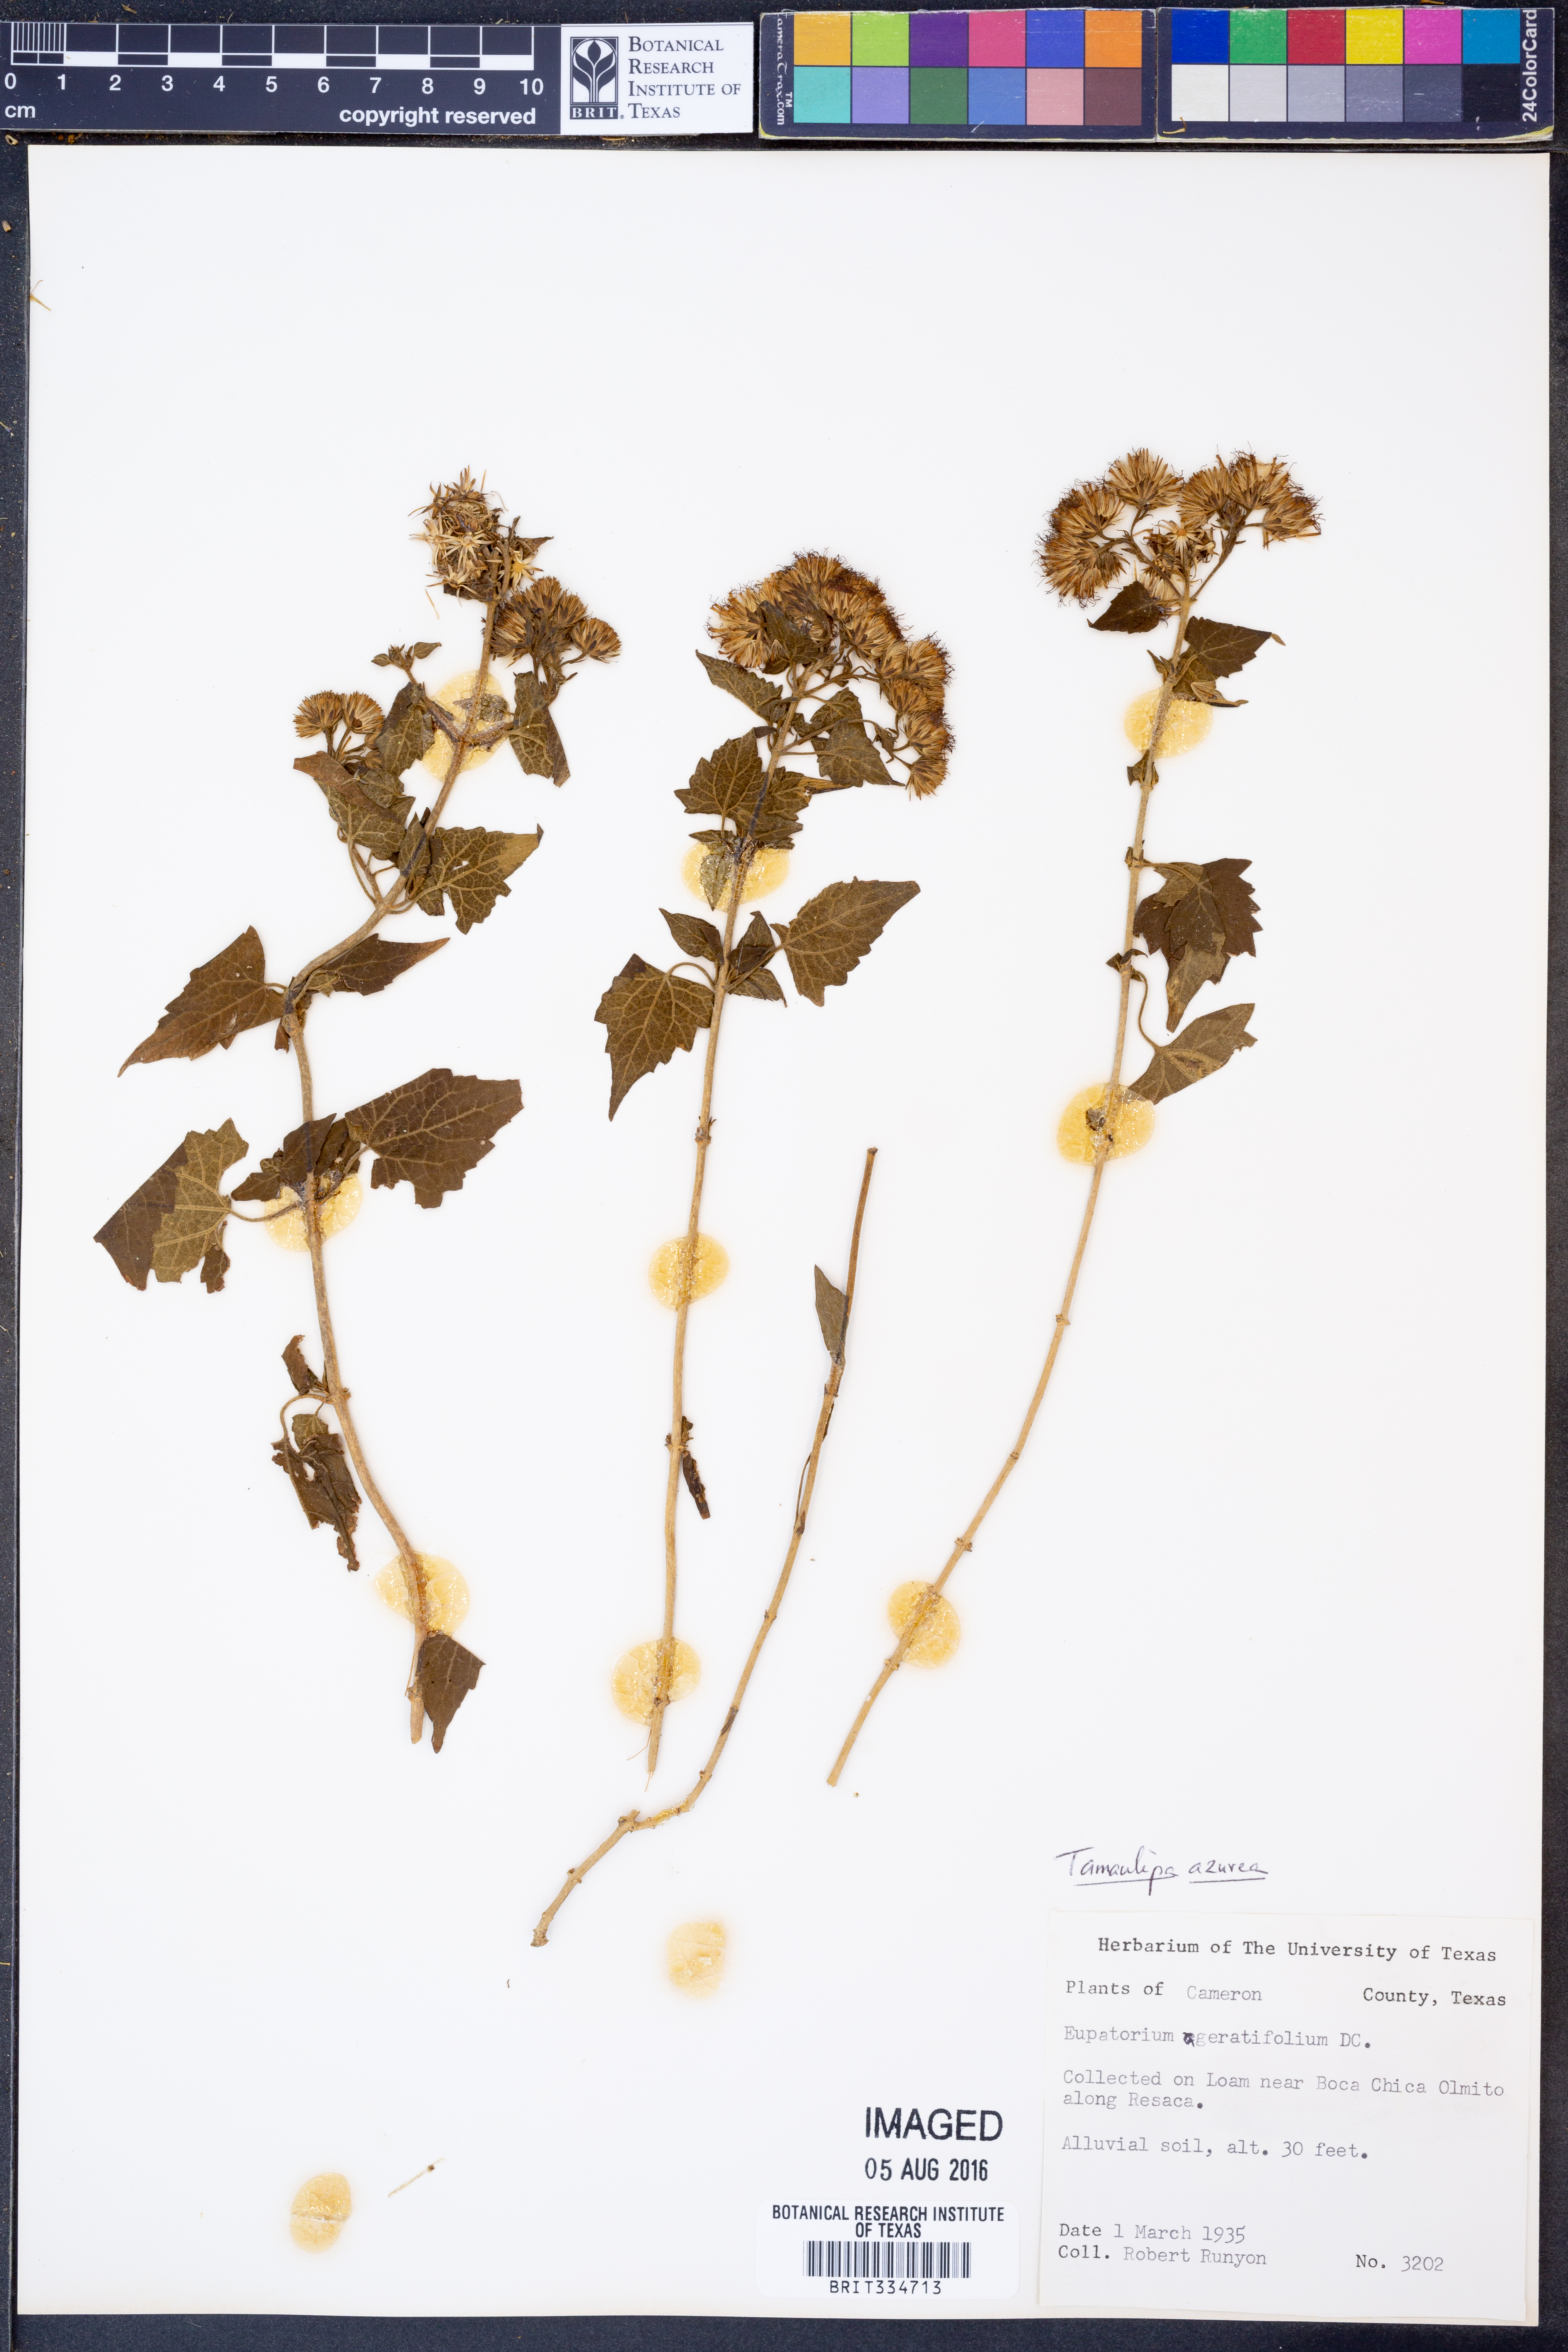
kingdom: Plantae
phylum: Tracheophyta
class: Magnoliopsida
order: Asterales
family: Asteraceae
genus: Tamaulipa
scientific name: Tamaulipa azurea
